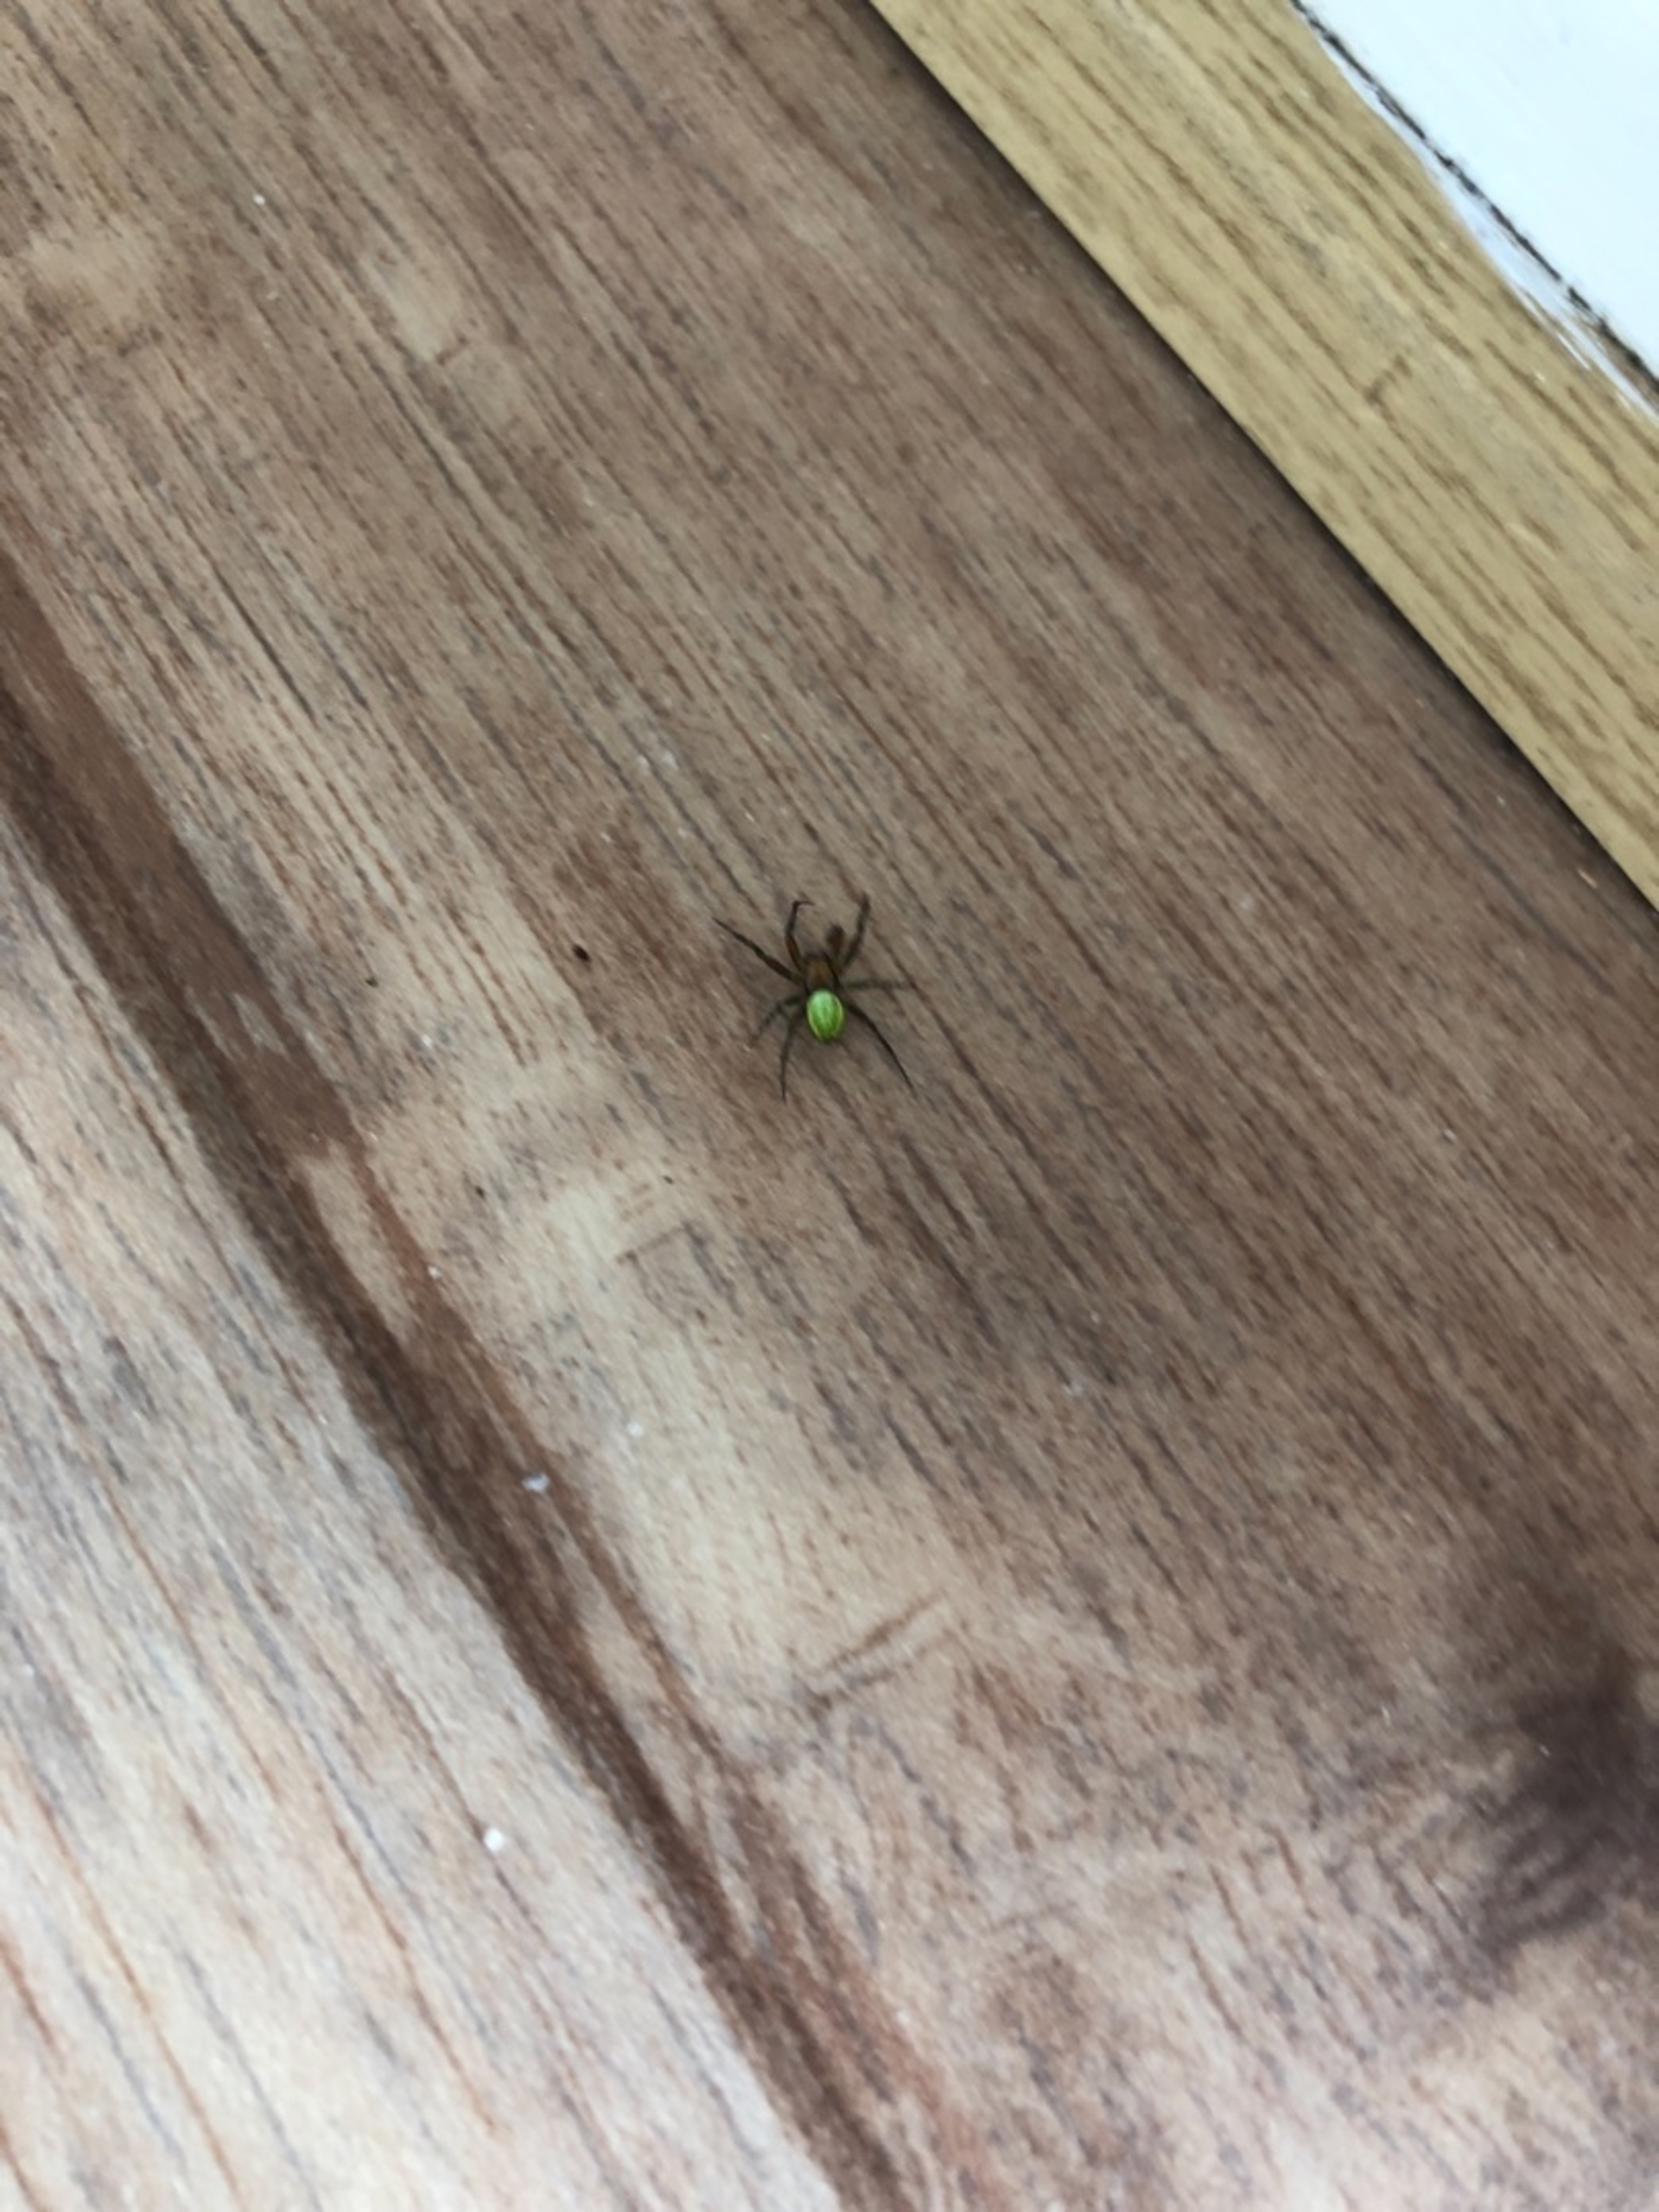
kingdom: Animalia
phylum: Arthropoda
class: Arachnida
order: Araneae
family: Araneidae
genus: Araniella
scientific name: Araniella
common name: Agurkeedderkopslægten
